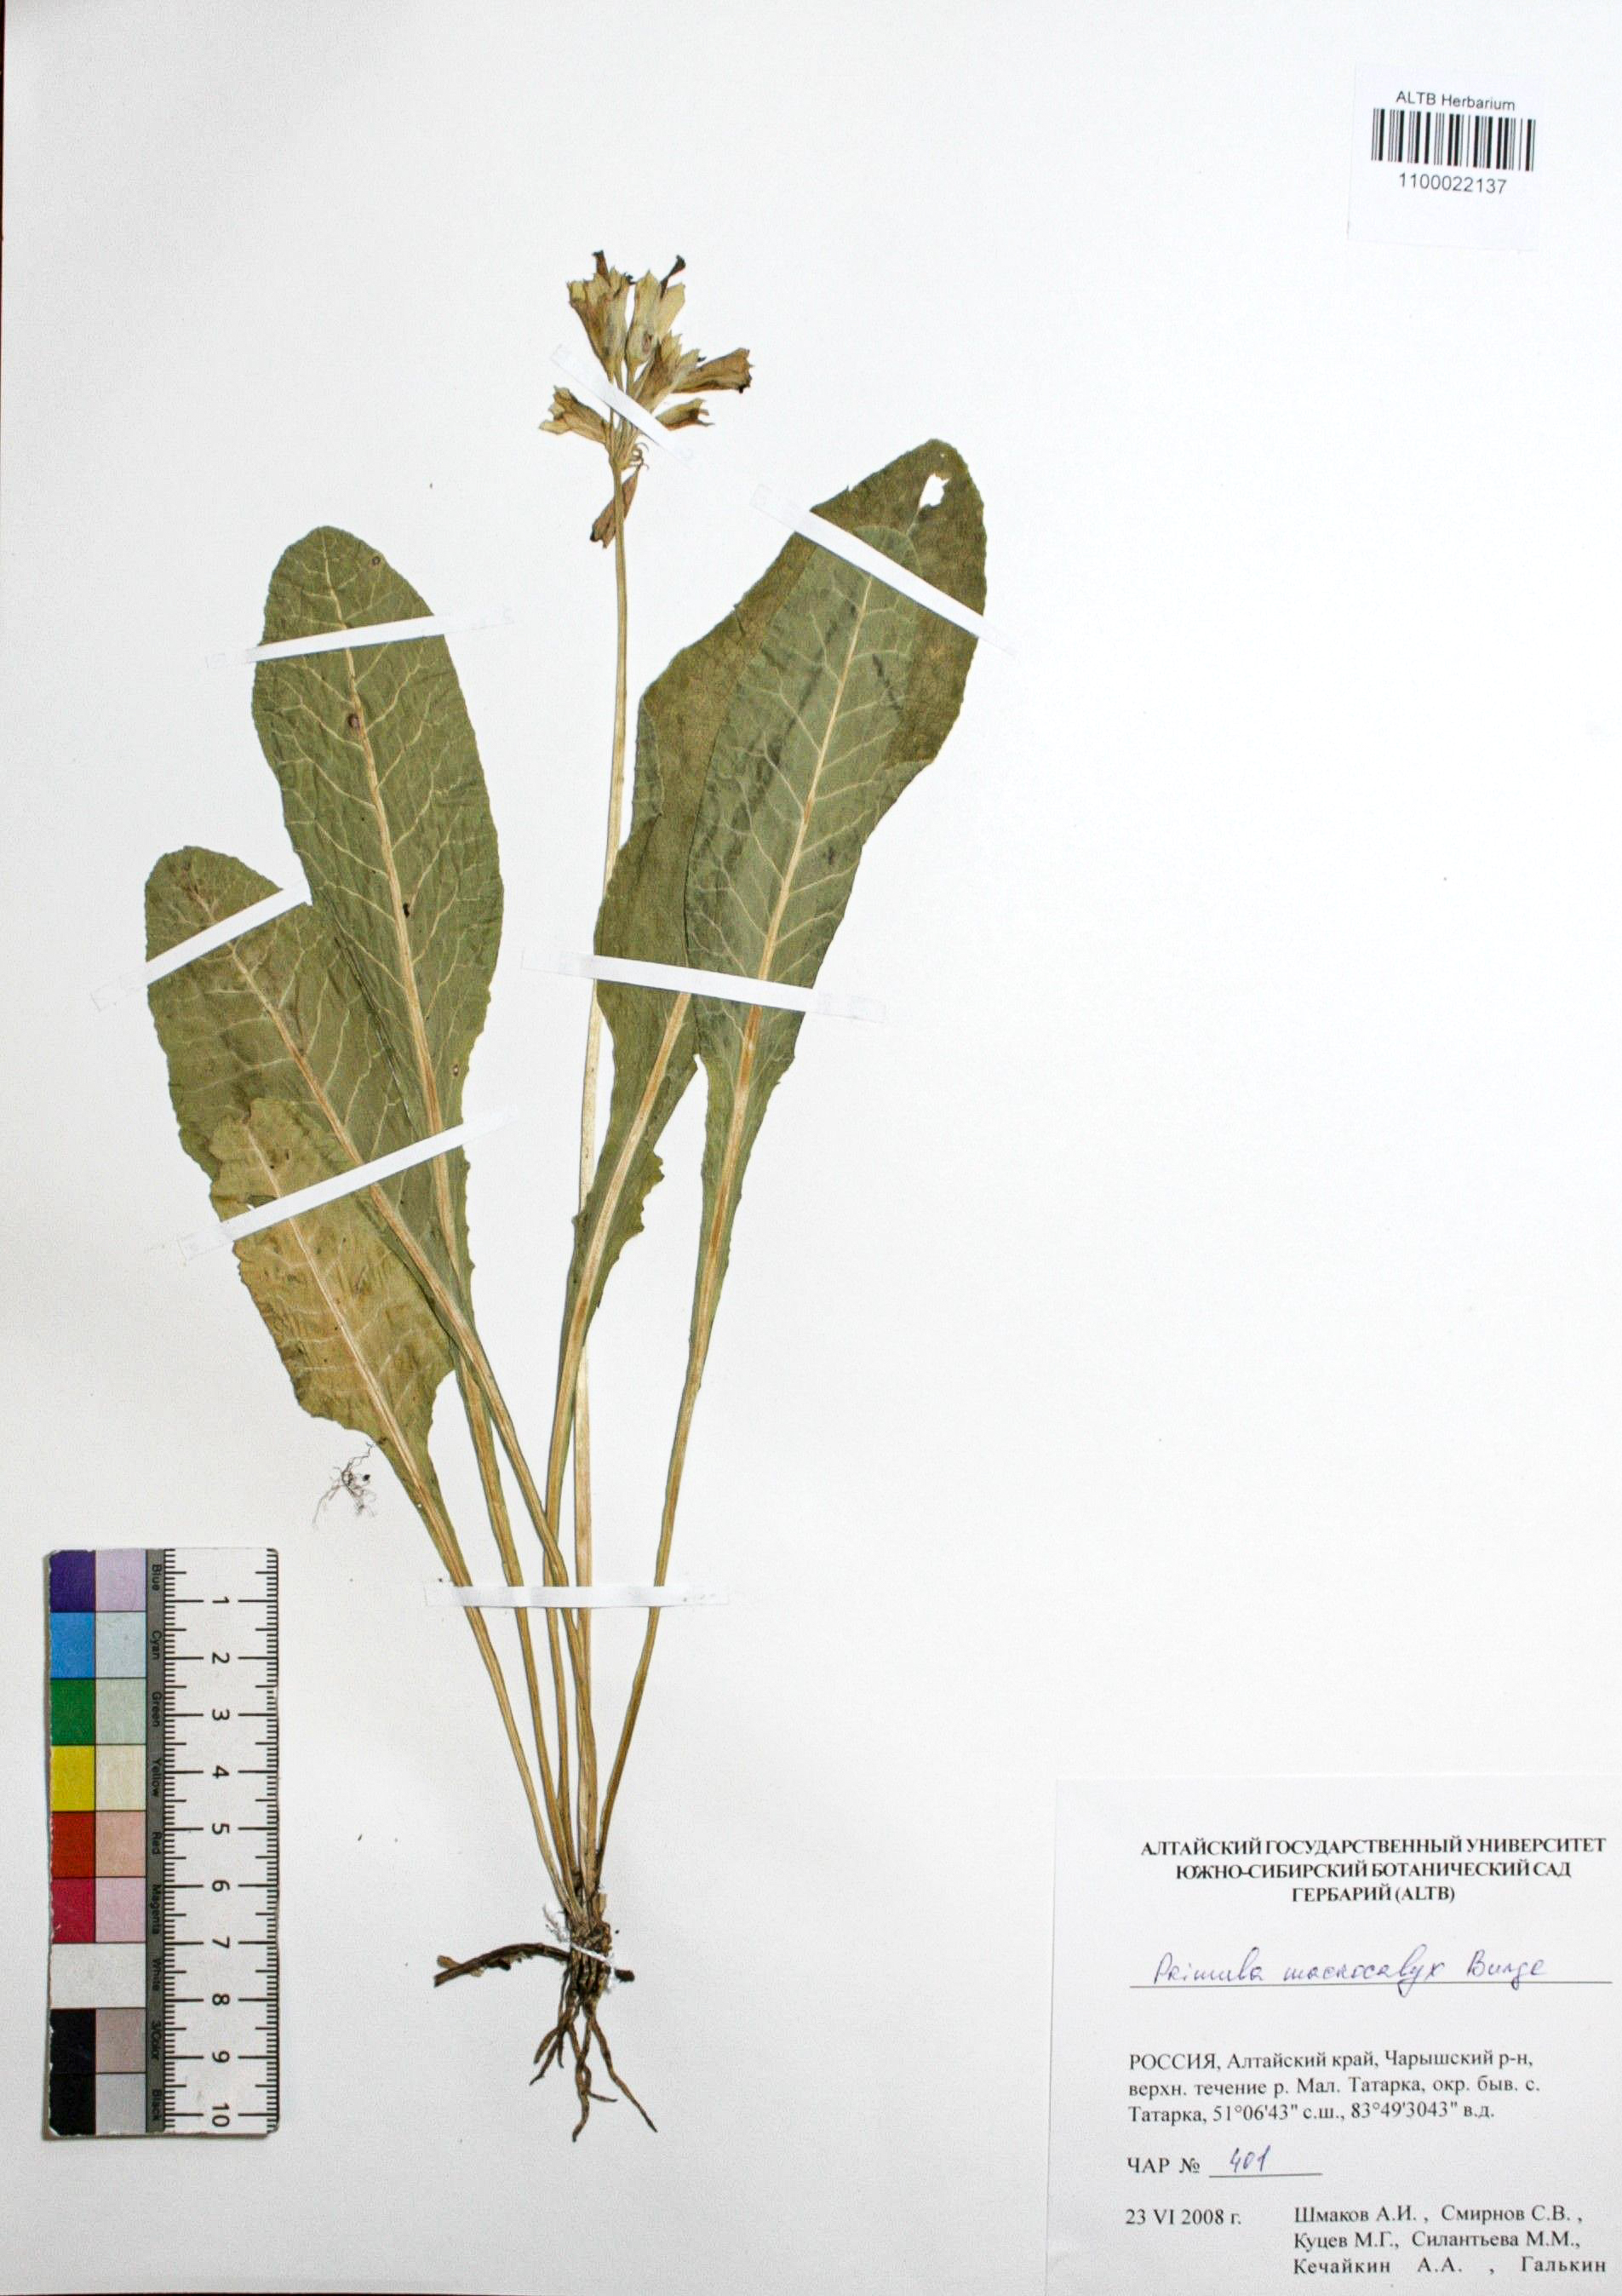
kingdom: Plantae
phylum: Tracheophyta
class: Magnoliopsida
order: Ericales
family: Primulaceae
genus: Primula
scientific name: Primula veris
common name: Cowslip
